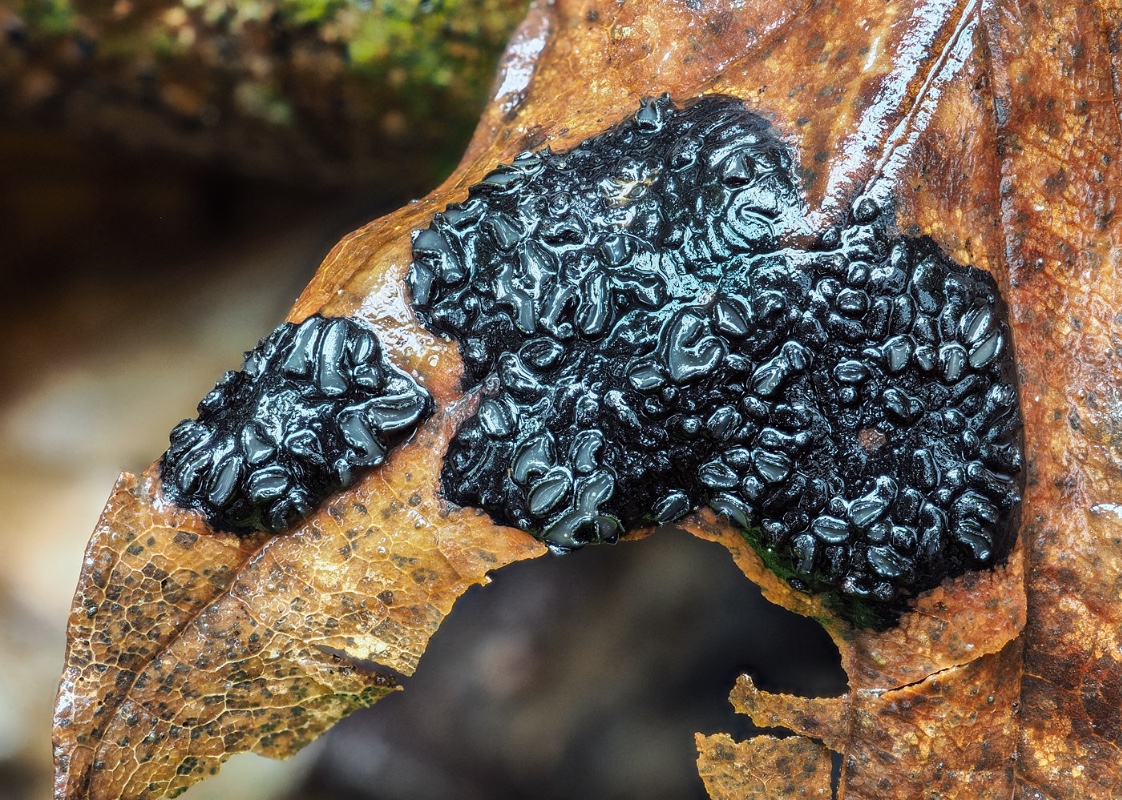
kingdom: Fungi
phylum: Ascomycota
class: Leotiomycetes
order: Rhytismatales
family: Rhytismataceae
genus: Rhytisma
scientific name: Rhytisma acerinum
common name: ahorn-rynkeplet
